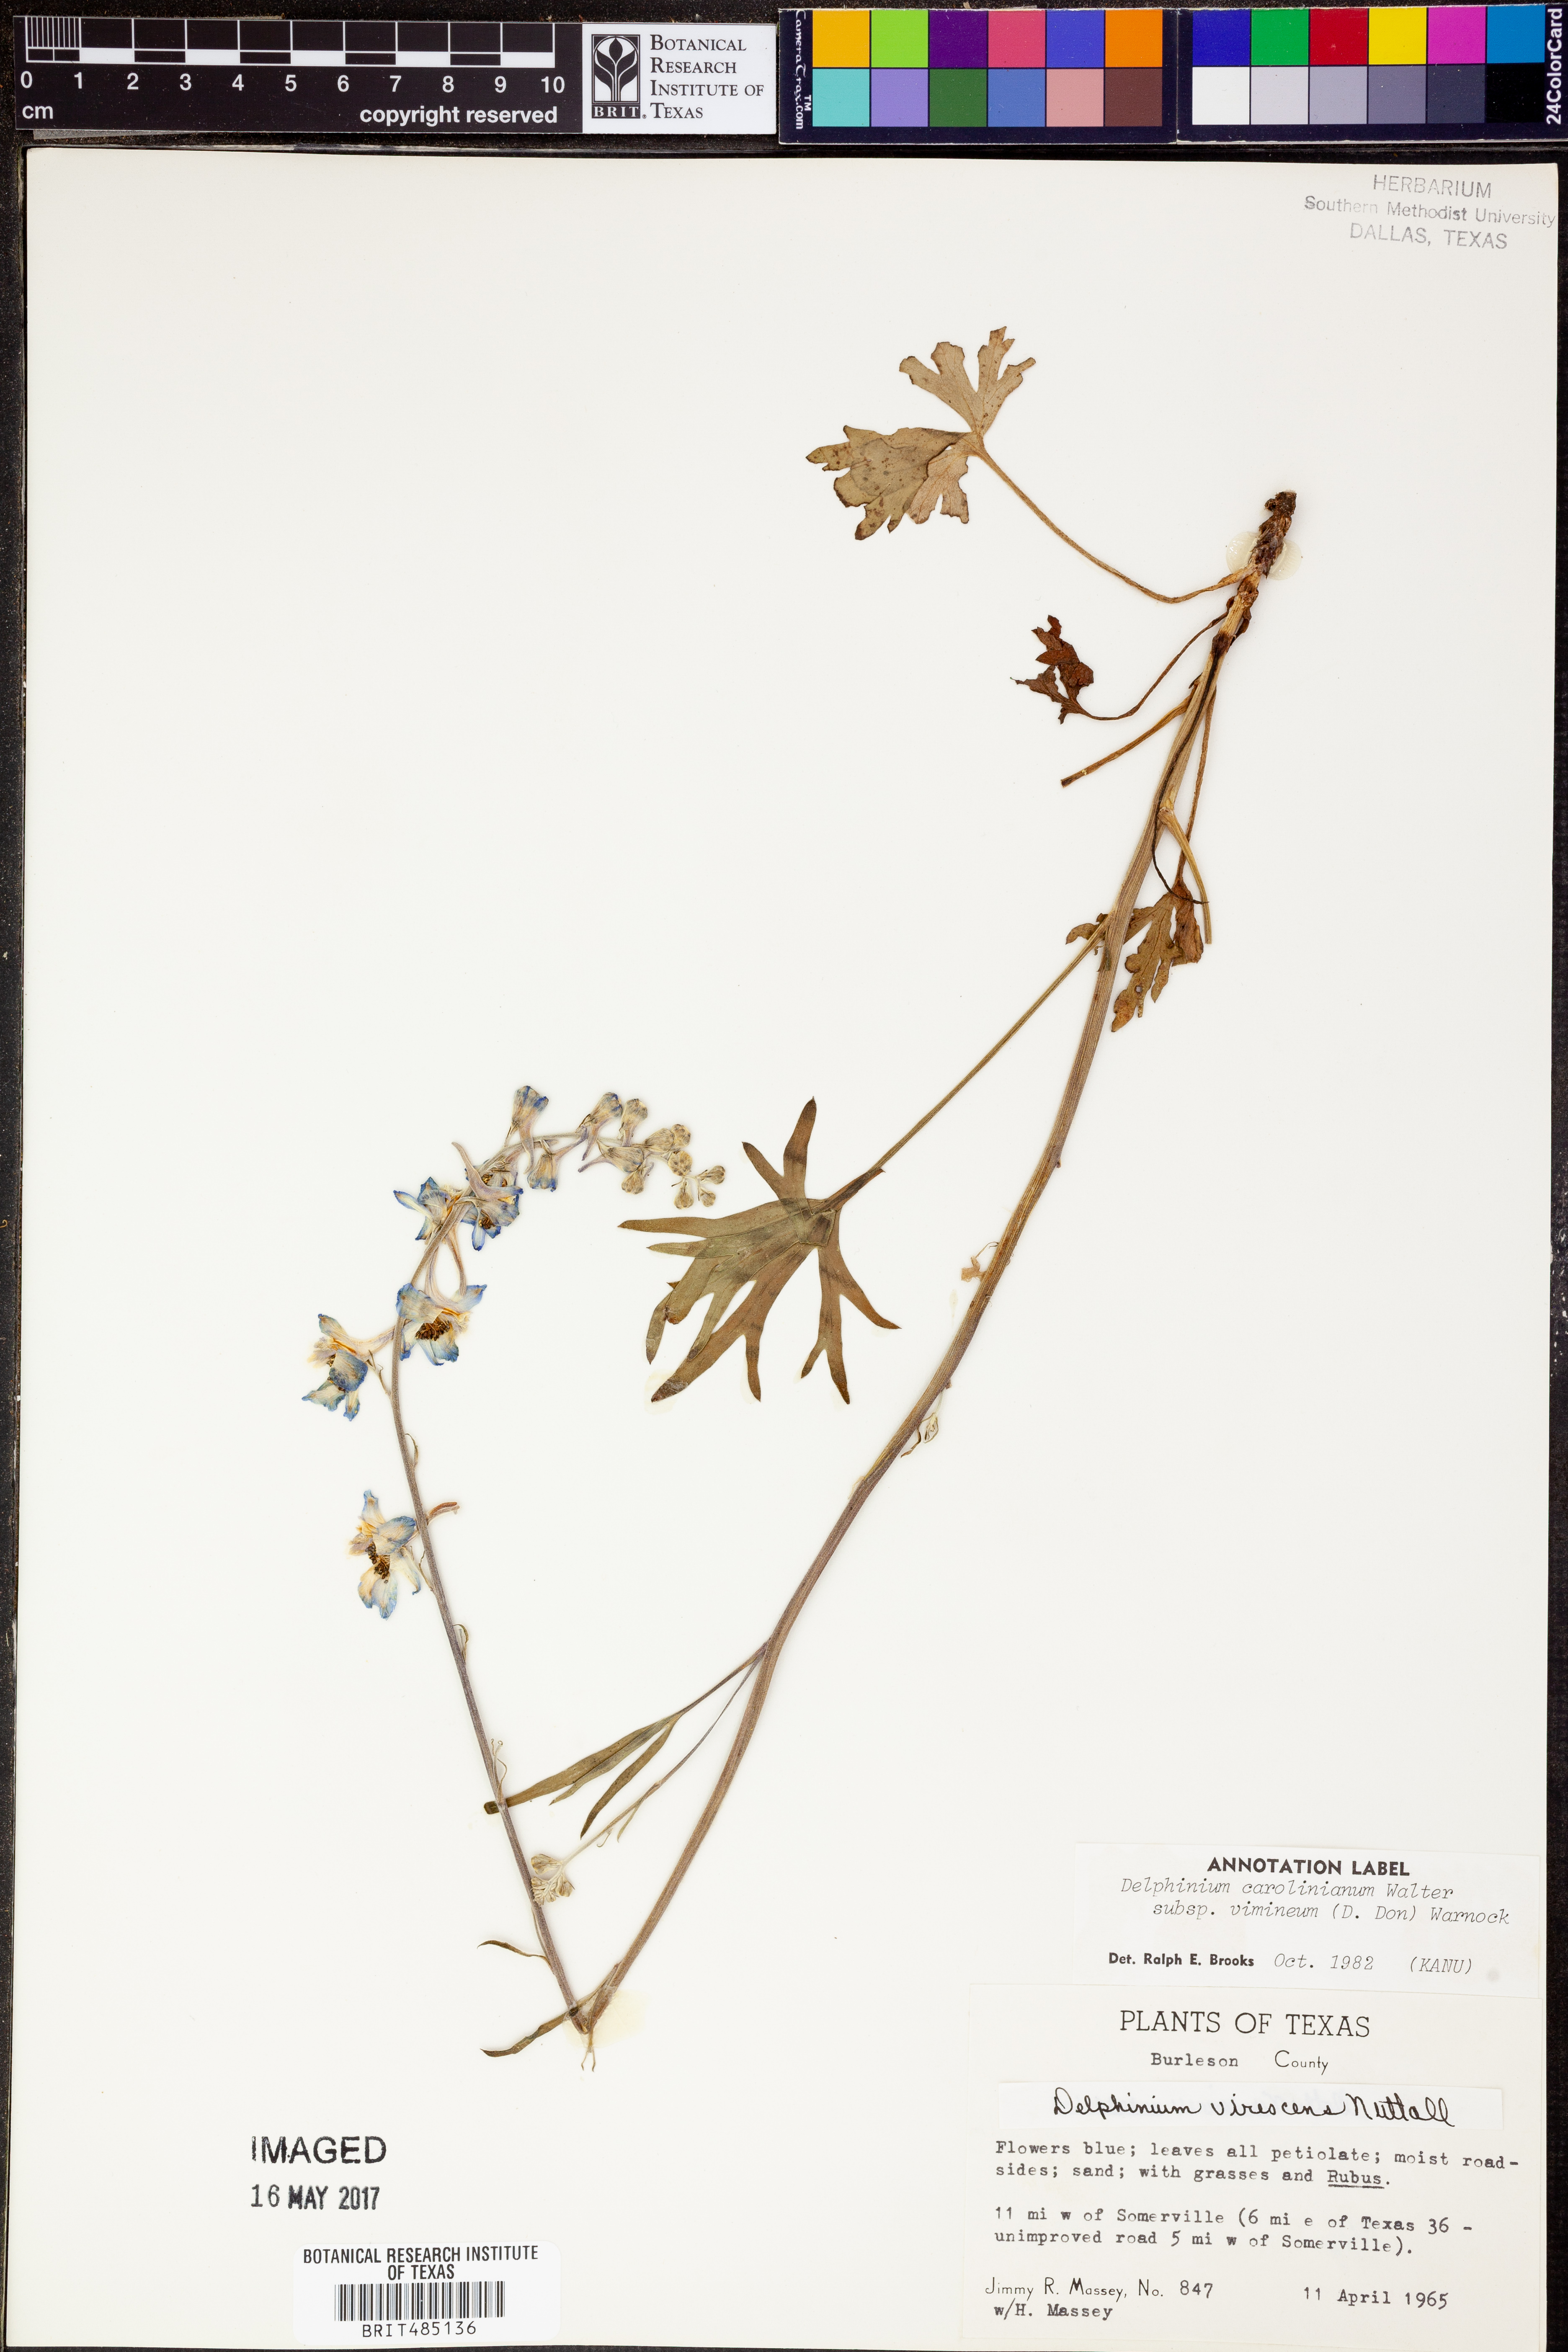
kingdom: Plantae
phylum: Tracheophyta
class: Magnoliopsida
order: Ranunculales
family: Ranunculaceae
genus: Delphinium
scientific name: Delphinium carolinianum
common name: Carolina larkspur
